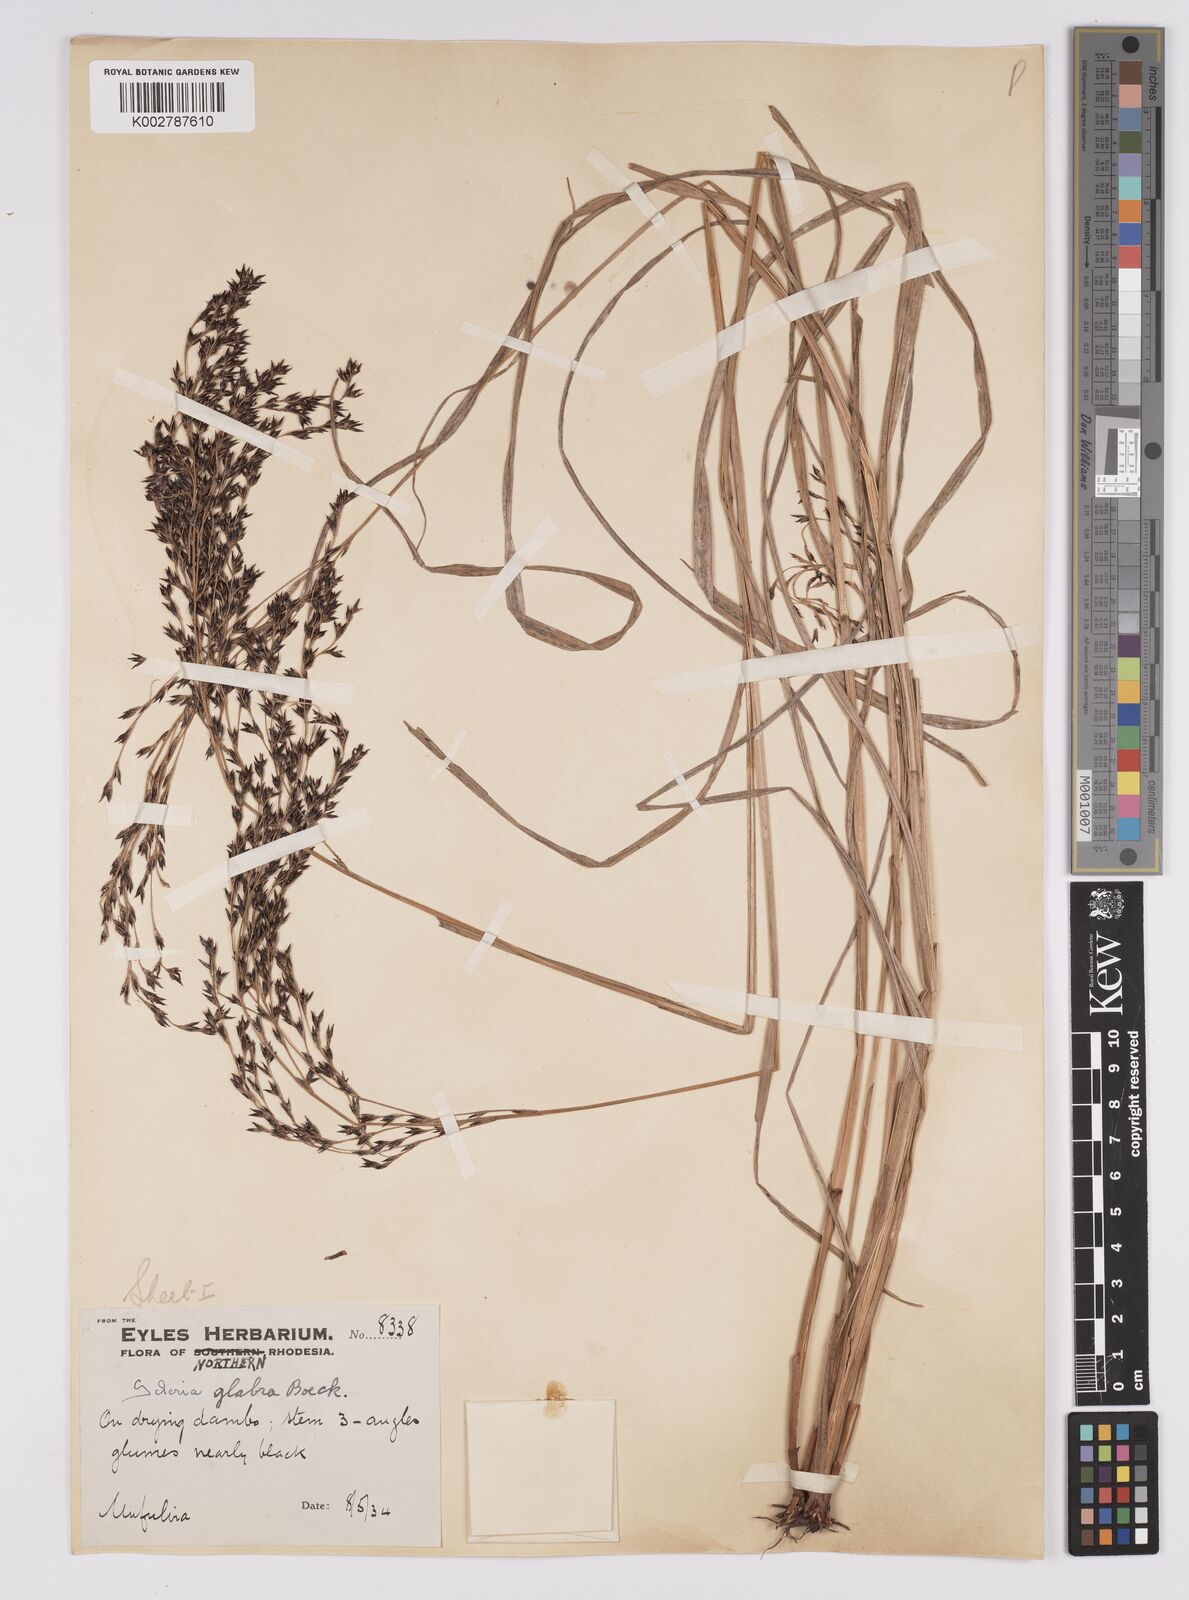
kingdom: Plantae
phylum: Tracheophyta
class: Liliopsida
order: Poales
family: Cyperaceae
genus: Scleria
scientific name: Scleria glabra
